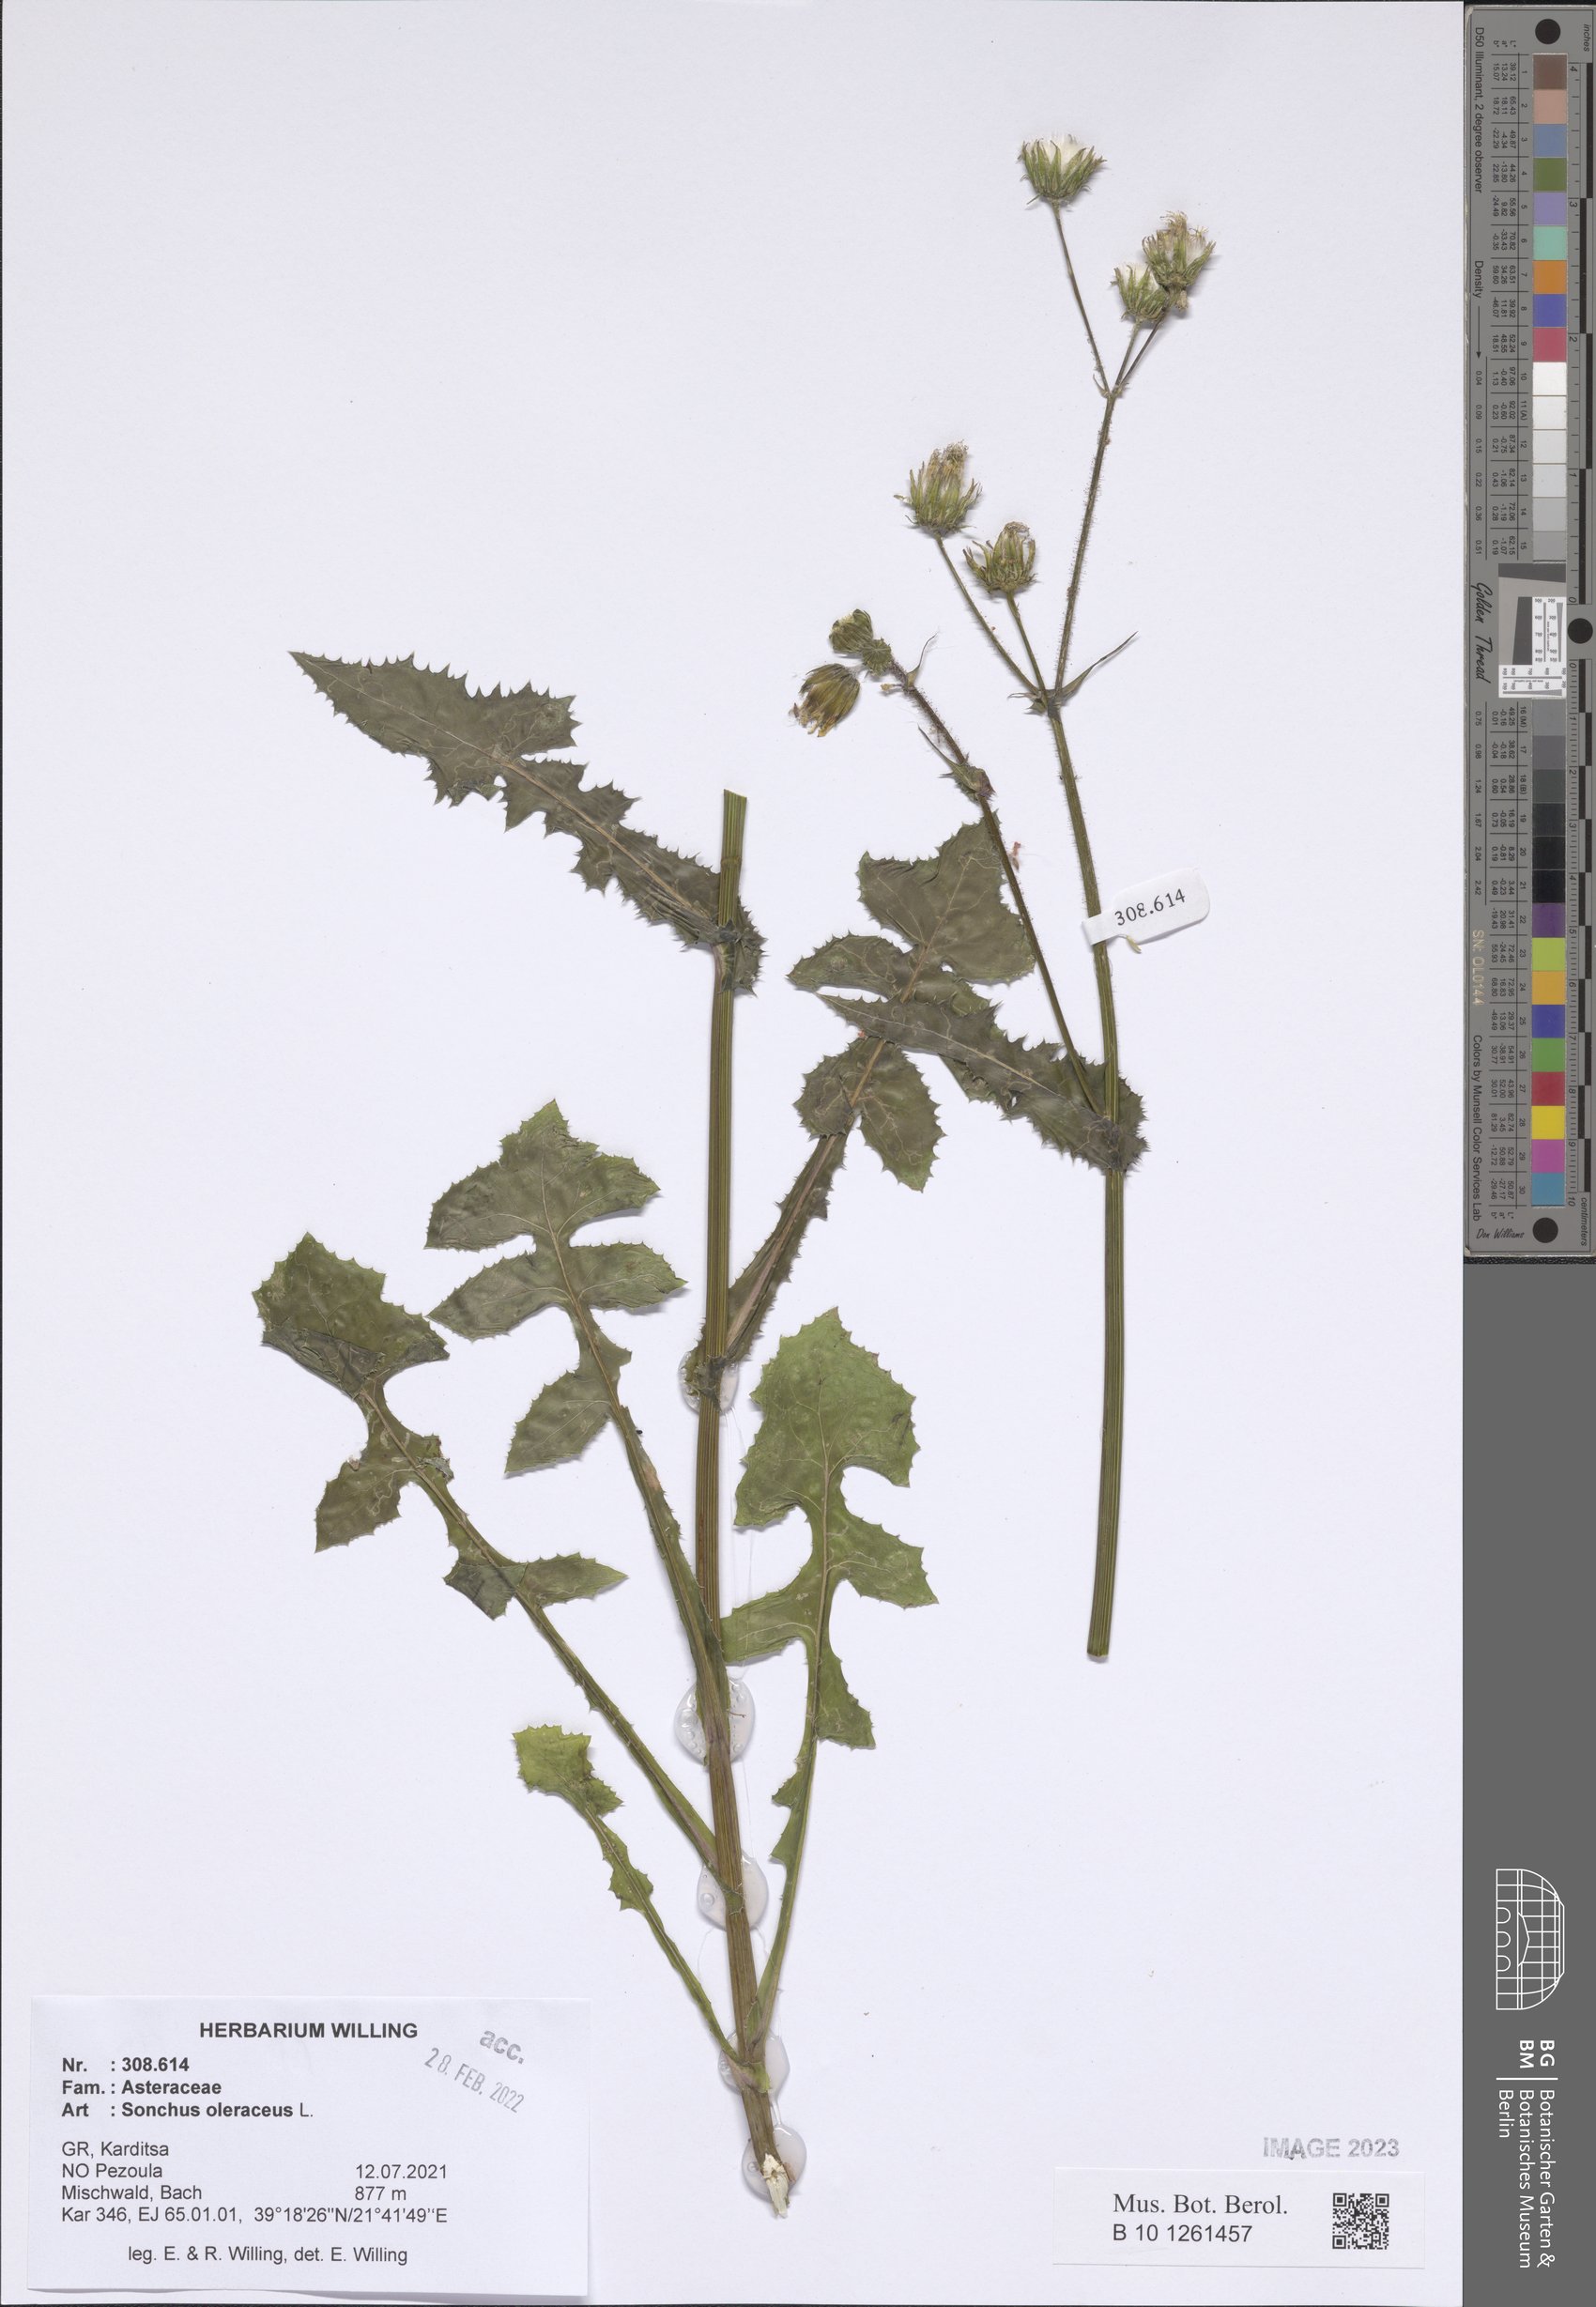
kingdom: Plantae
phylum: Tracheophyta
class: Magnoliopsida
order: Asterales
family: Asteraceae
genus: Sonchus
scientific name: Sonchus oleraceus
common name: Common sowthistle
